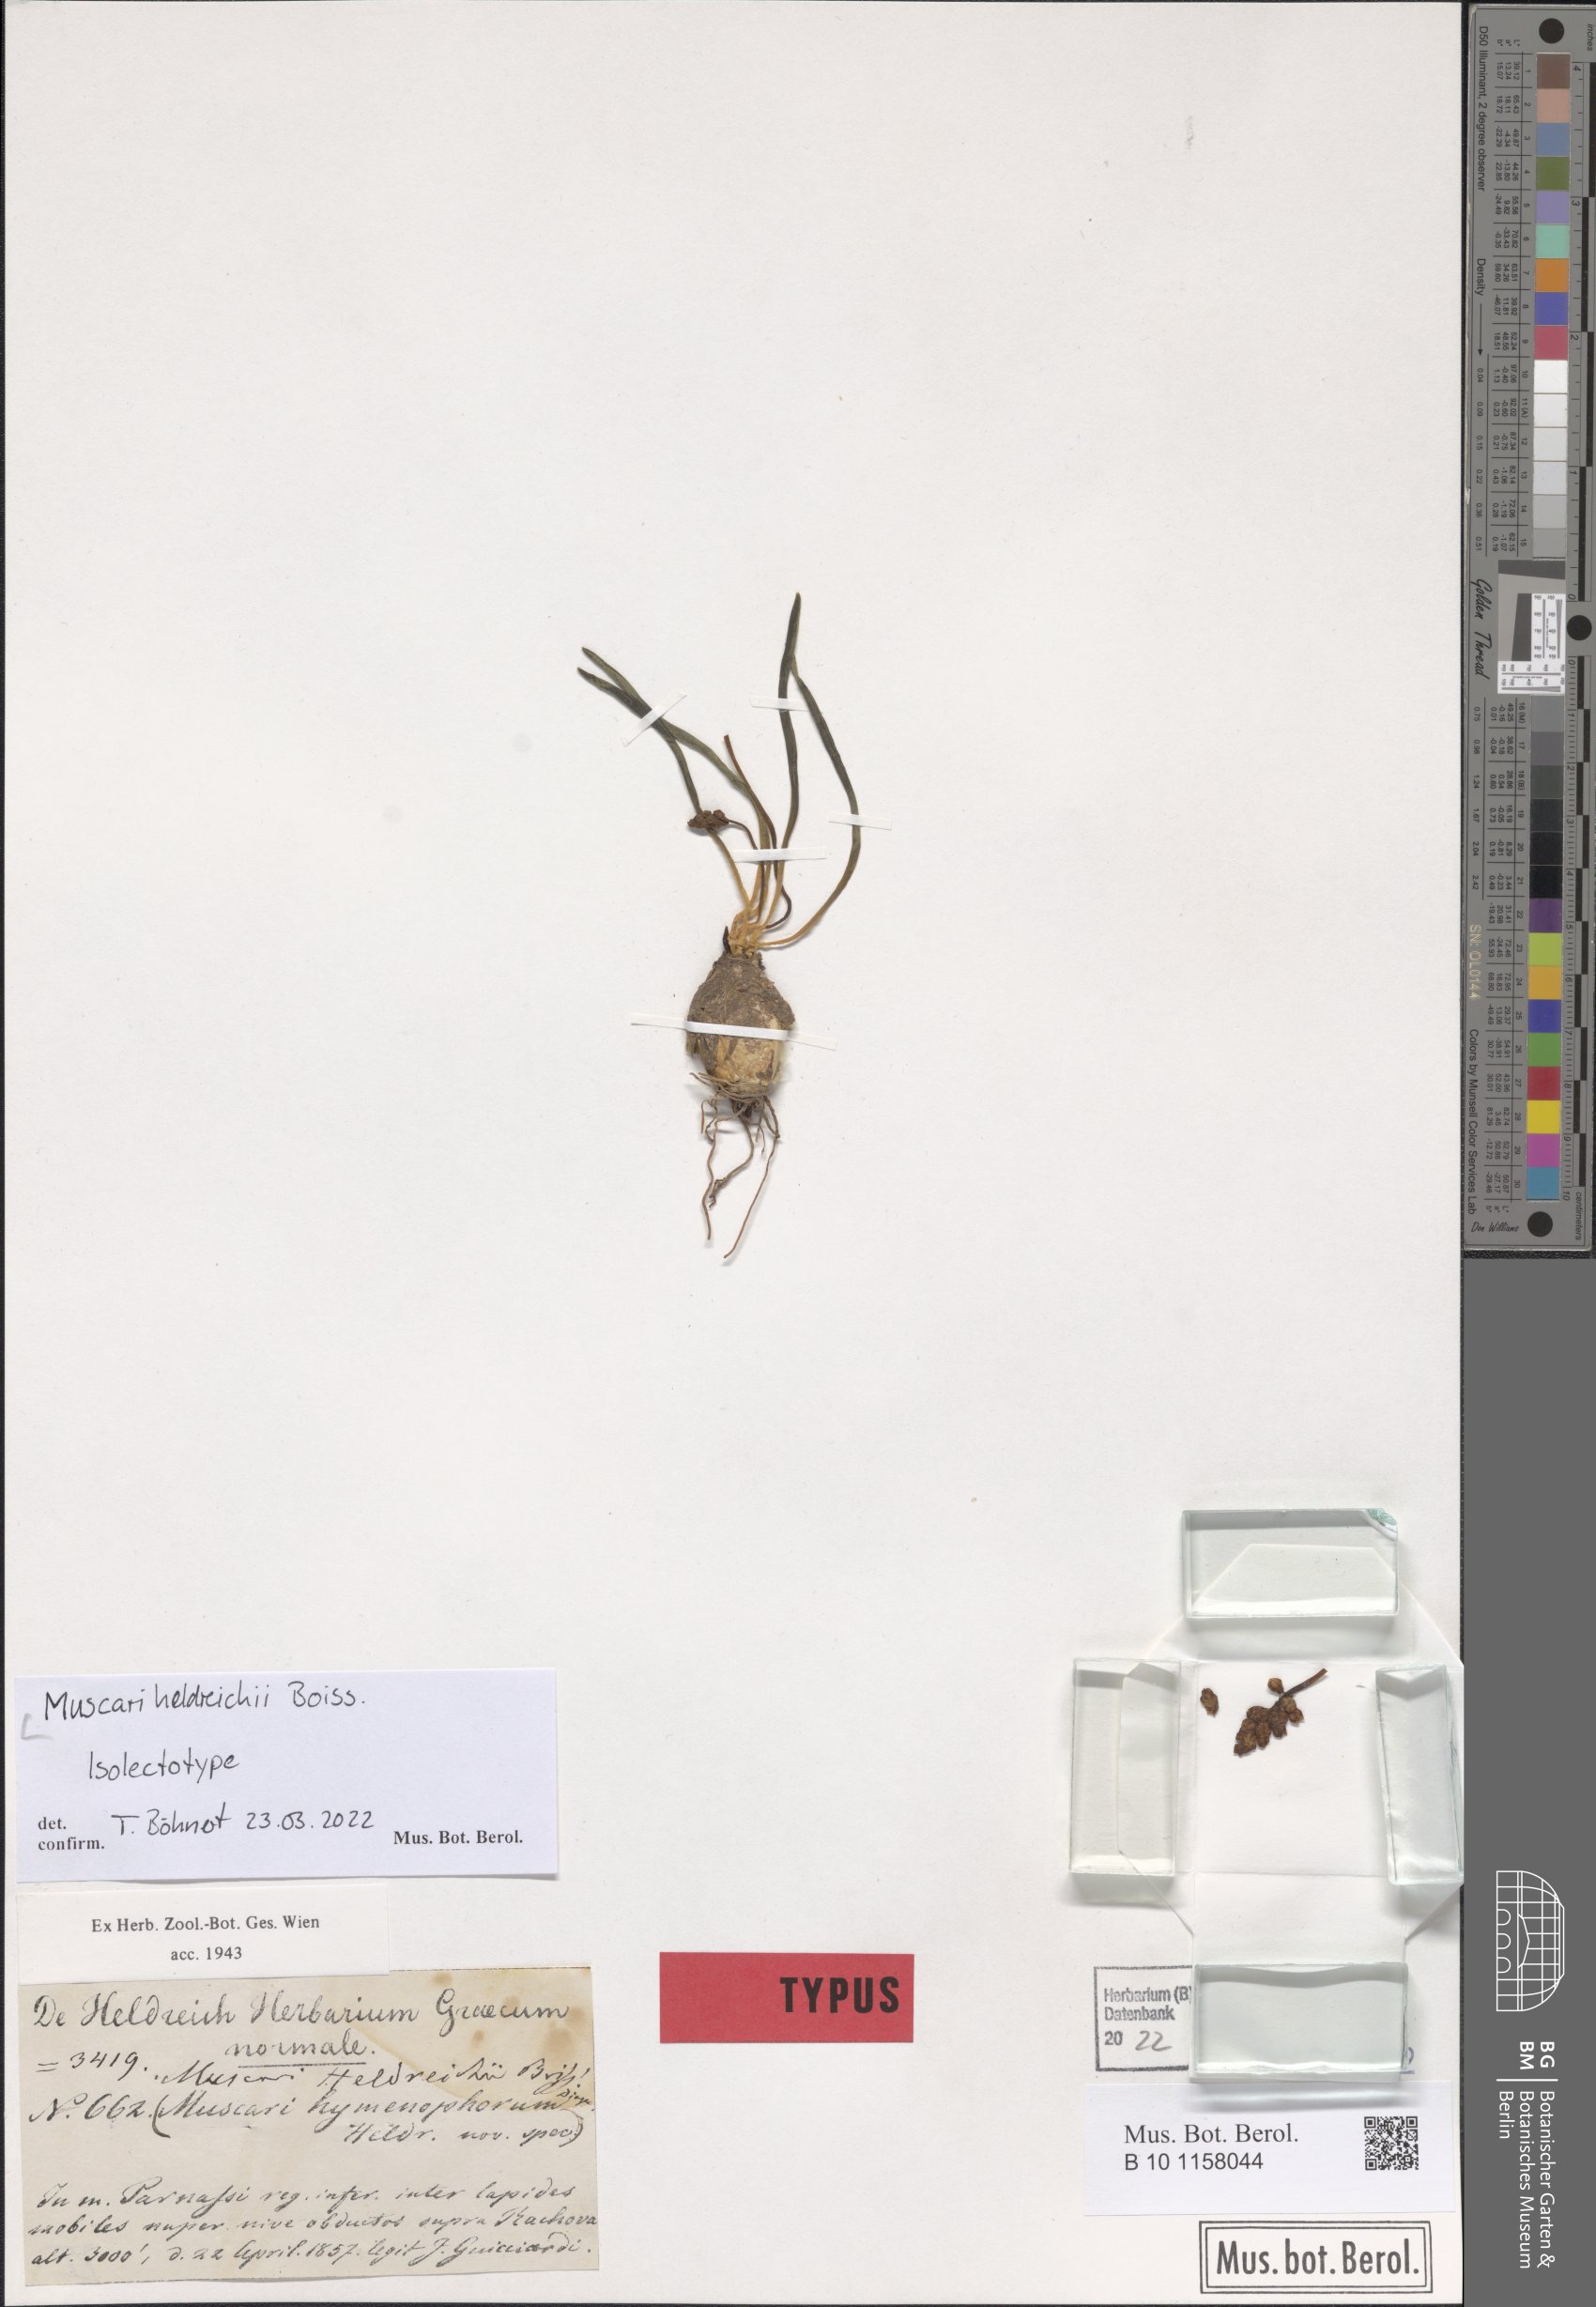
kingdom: Plantae
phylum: Tracheophyta
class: Liliopsida
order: Asparagales
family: Asparagaceae
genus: Muscari
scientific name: Muscari heldreichii
